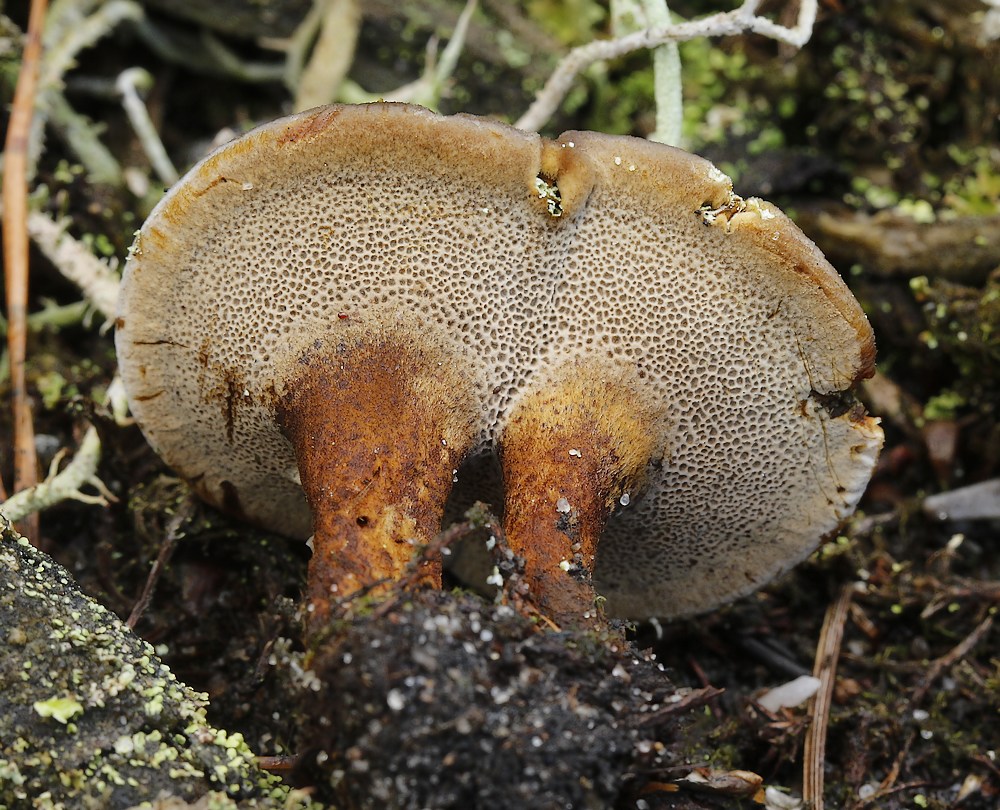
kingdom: Fungi
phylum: Basidiomycota
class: Agaricomycetes
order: Hymenochaetales
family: Hymenochaetaceae
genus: Coltricia
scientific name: Coltricia perennis
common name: almindelig sandporesvamp
